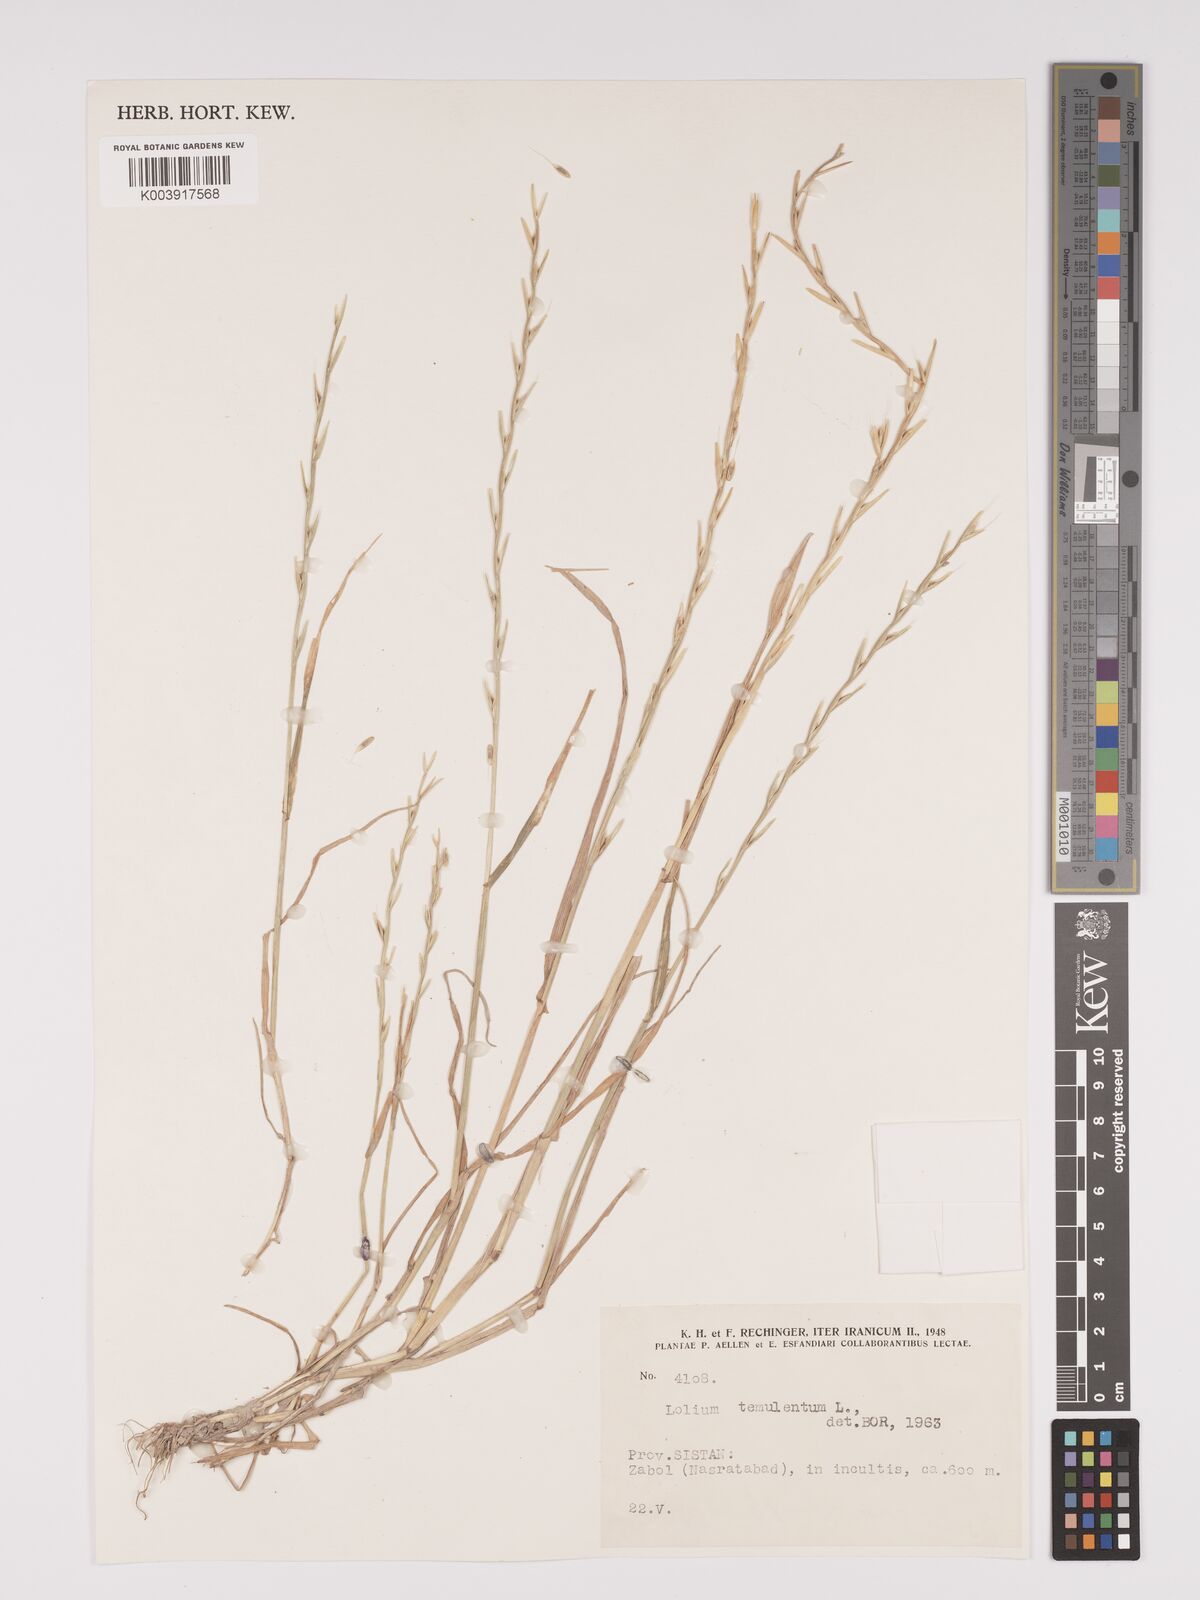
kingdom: Plantae
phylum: Tracheophyta
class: Liliopsida
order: Poales
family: Poaceae
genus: Lolium
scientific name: Lolium temulentum
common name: Darnel
